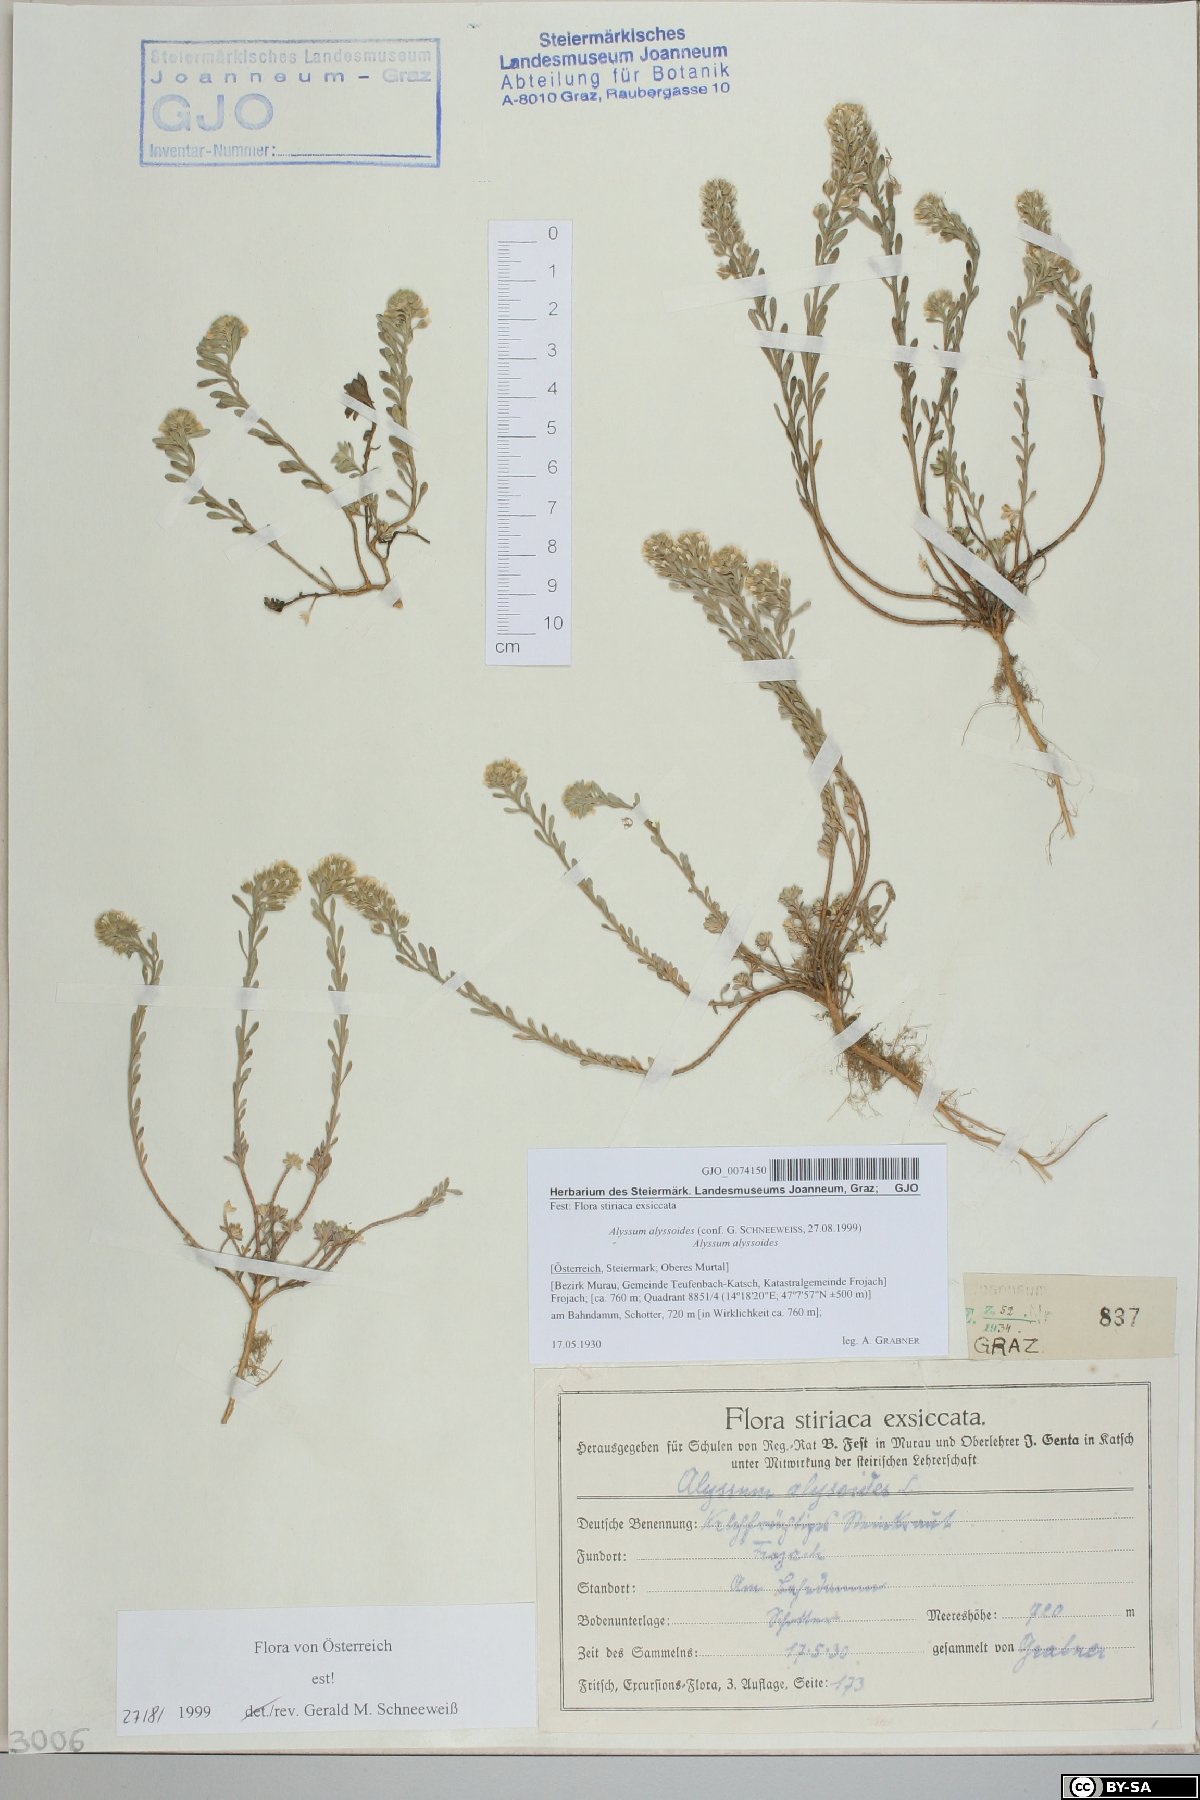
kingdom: Plantae
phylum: Tracheophyta
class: Magnoliopsida
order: Brassicales
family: Brassicaceae
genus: Alyssum
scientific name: Alyssum alyssoides
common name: Small alison
